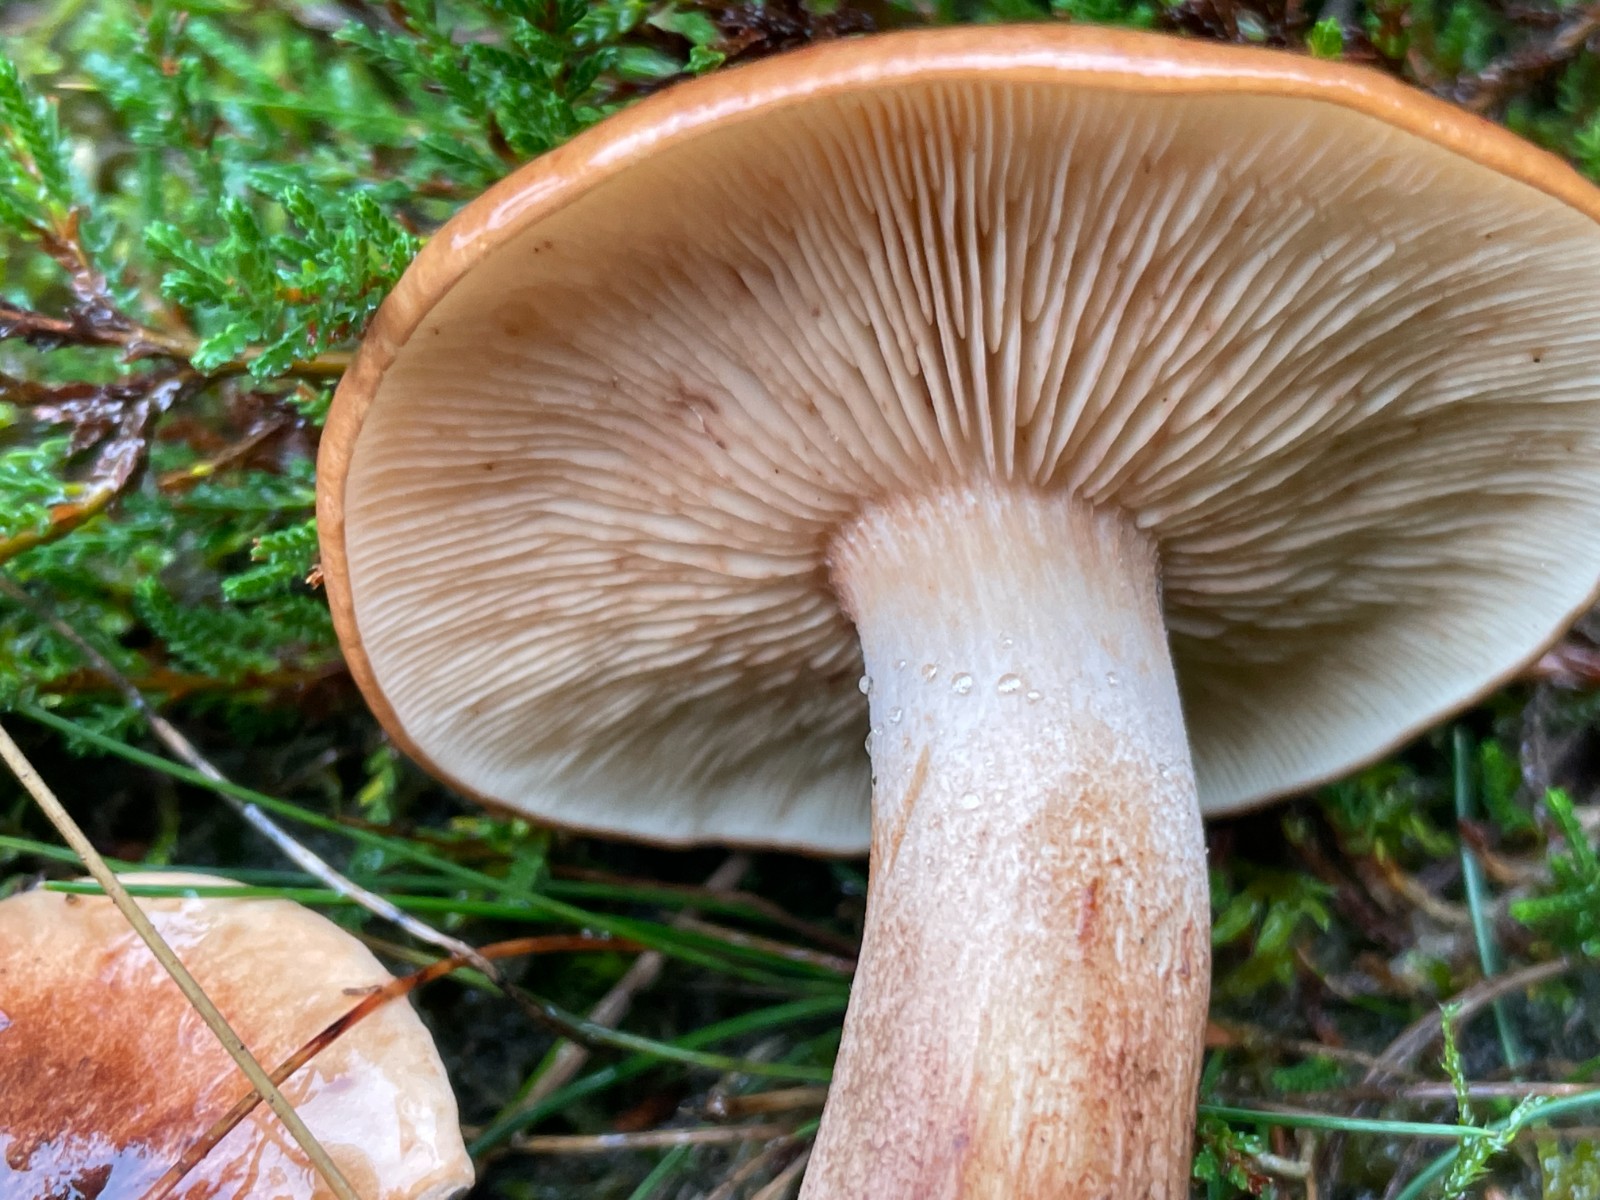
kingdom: Fungi
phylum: Basidiomycota
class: Agaricomycetes
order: Agaricales
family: Tricholomataceae
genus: Tricholoma
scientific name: Tricholoma fulvum
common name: birke-ridderhat
